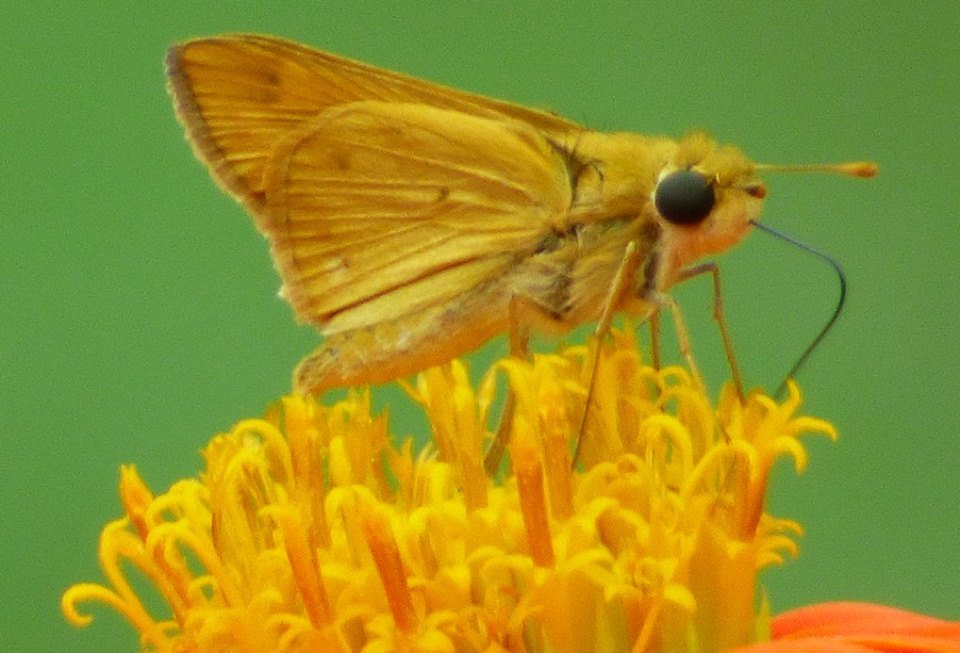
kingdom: Animalia
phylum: Arthropoda
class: Insecta
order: Lepidoptera
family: Hesperiidae
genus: Hylephila
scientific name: Hylephila phyleus
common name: Fiery Skipper
